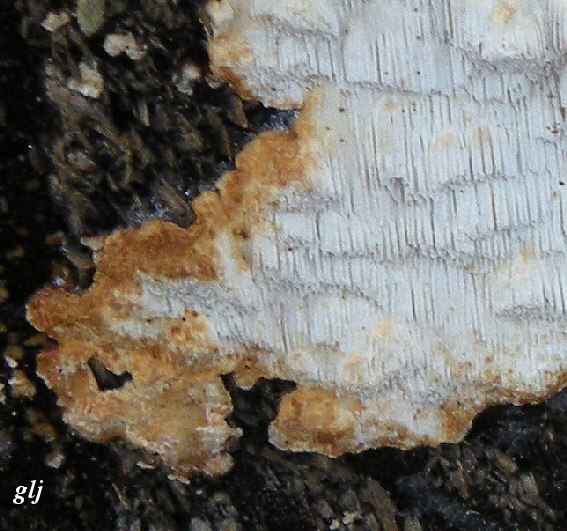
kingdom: Fungi
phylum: Basidiomycota
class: Agaricomycetes
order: Polyporales
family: Fomitopsidaceae
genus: Neoantrodia
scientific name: Neoantrodia serialis
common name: række-sejporesvamp
